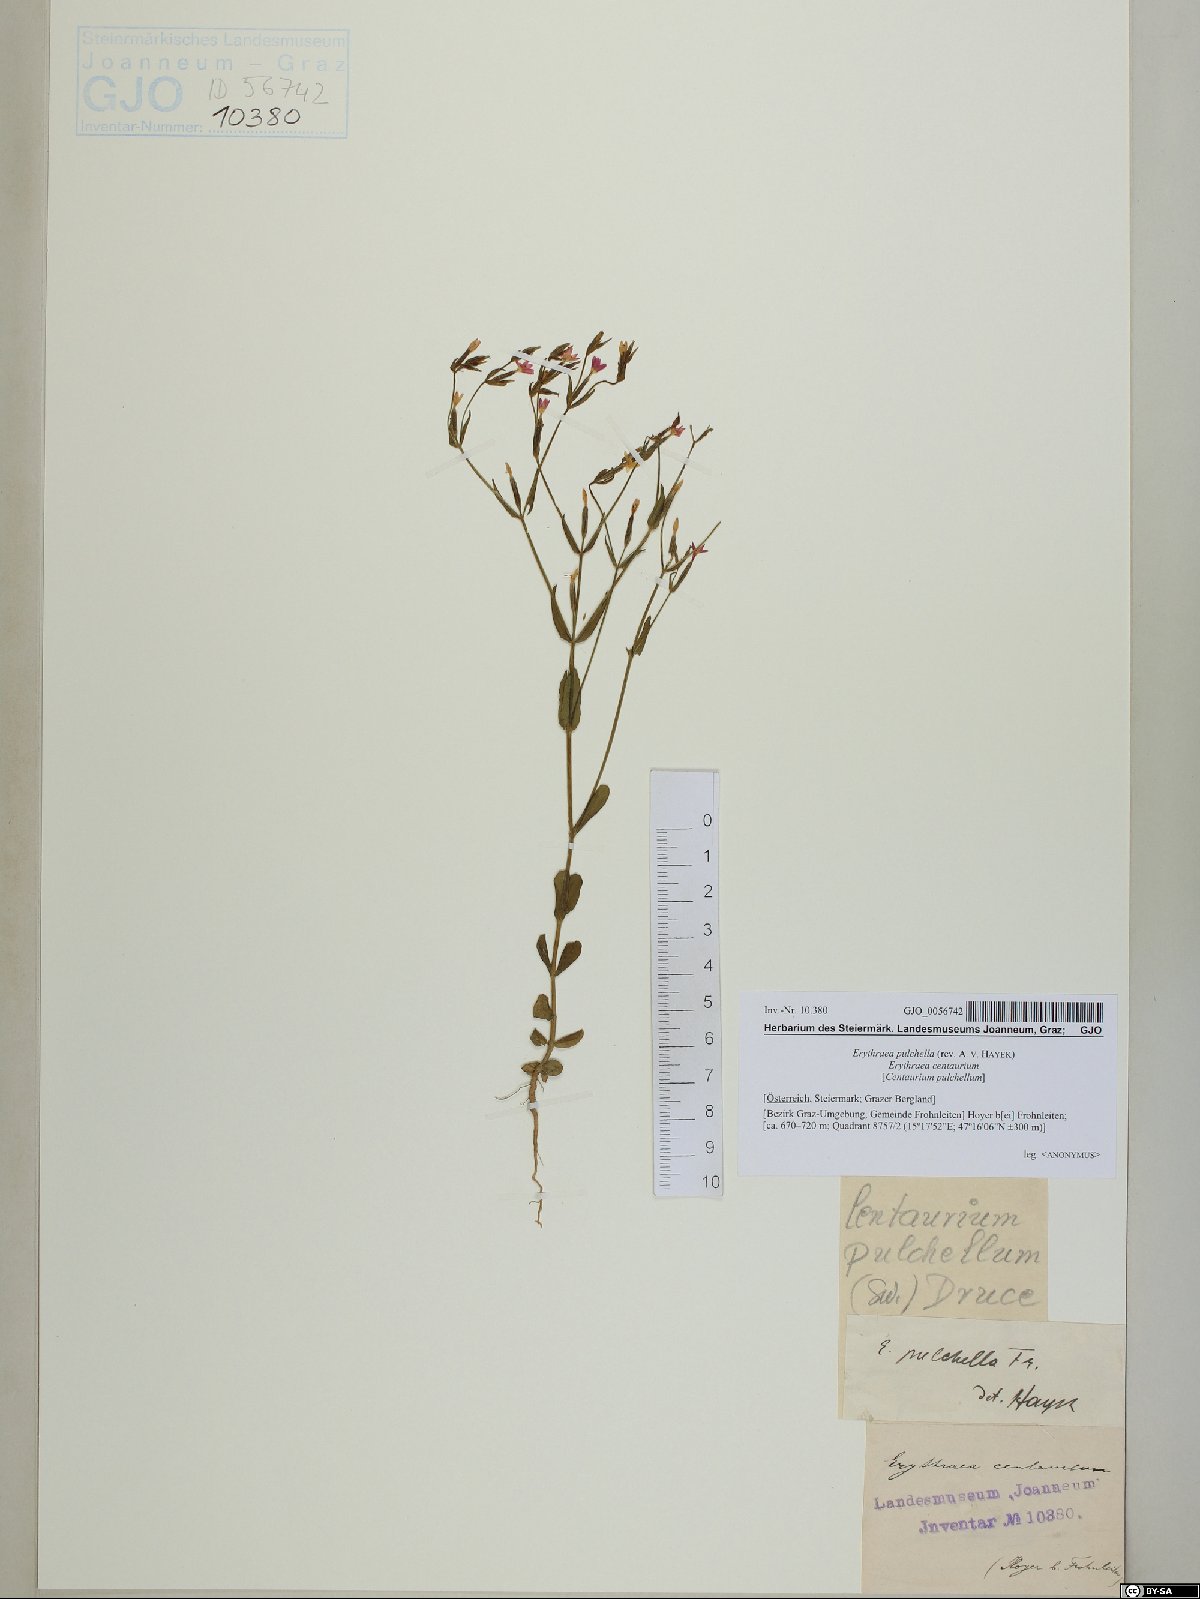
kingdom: Plantae
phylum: Tracheophyta
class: Magnoliopsida
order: Gentianales
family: Gentianaceae
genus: Centaurium
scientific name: Centaurium pulchellum
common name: Lesser centaury
